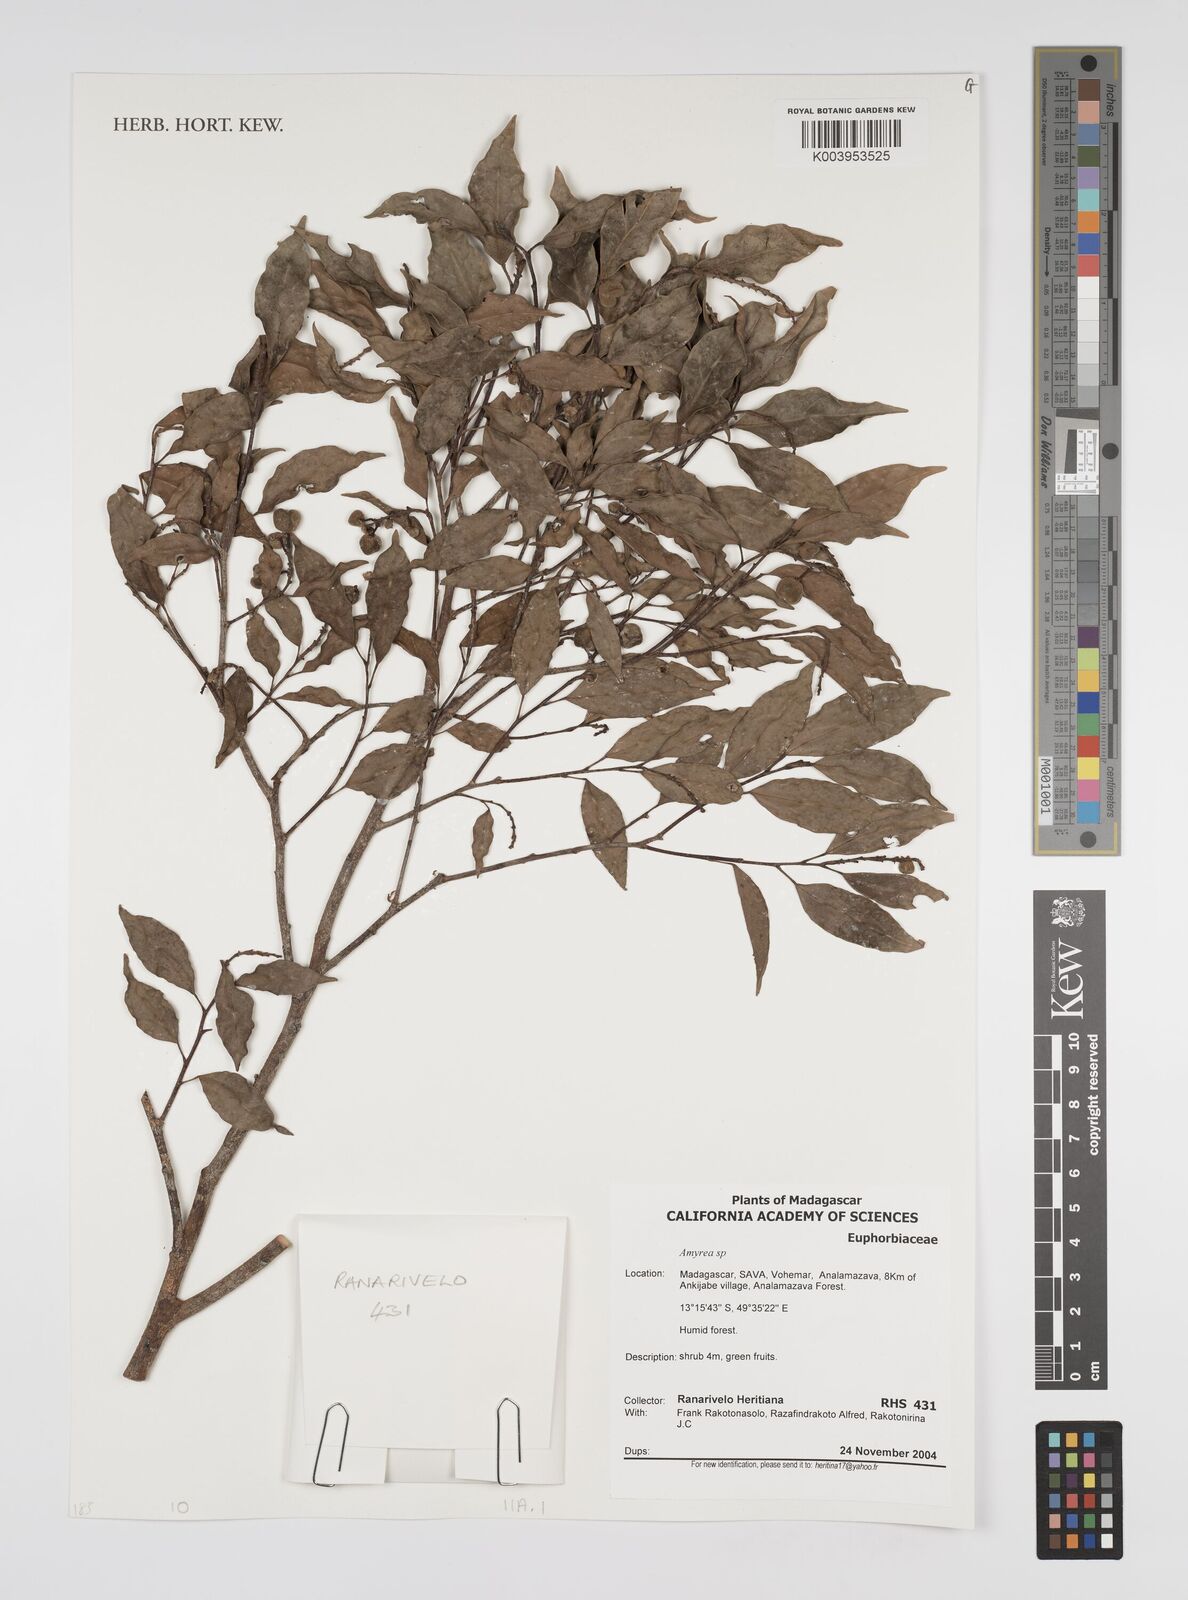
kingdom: Plantae
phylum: Tracheophyta
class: Magnoliopsida
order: Malpighiales
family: Euphorbiaceae
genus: Amyrea
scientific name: Amyrea
